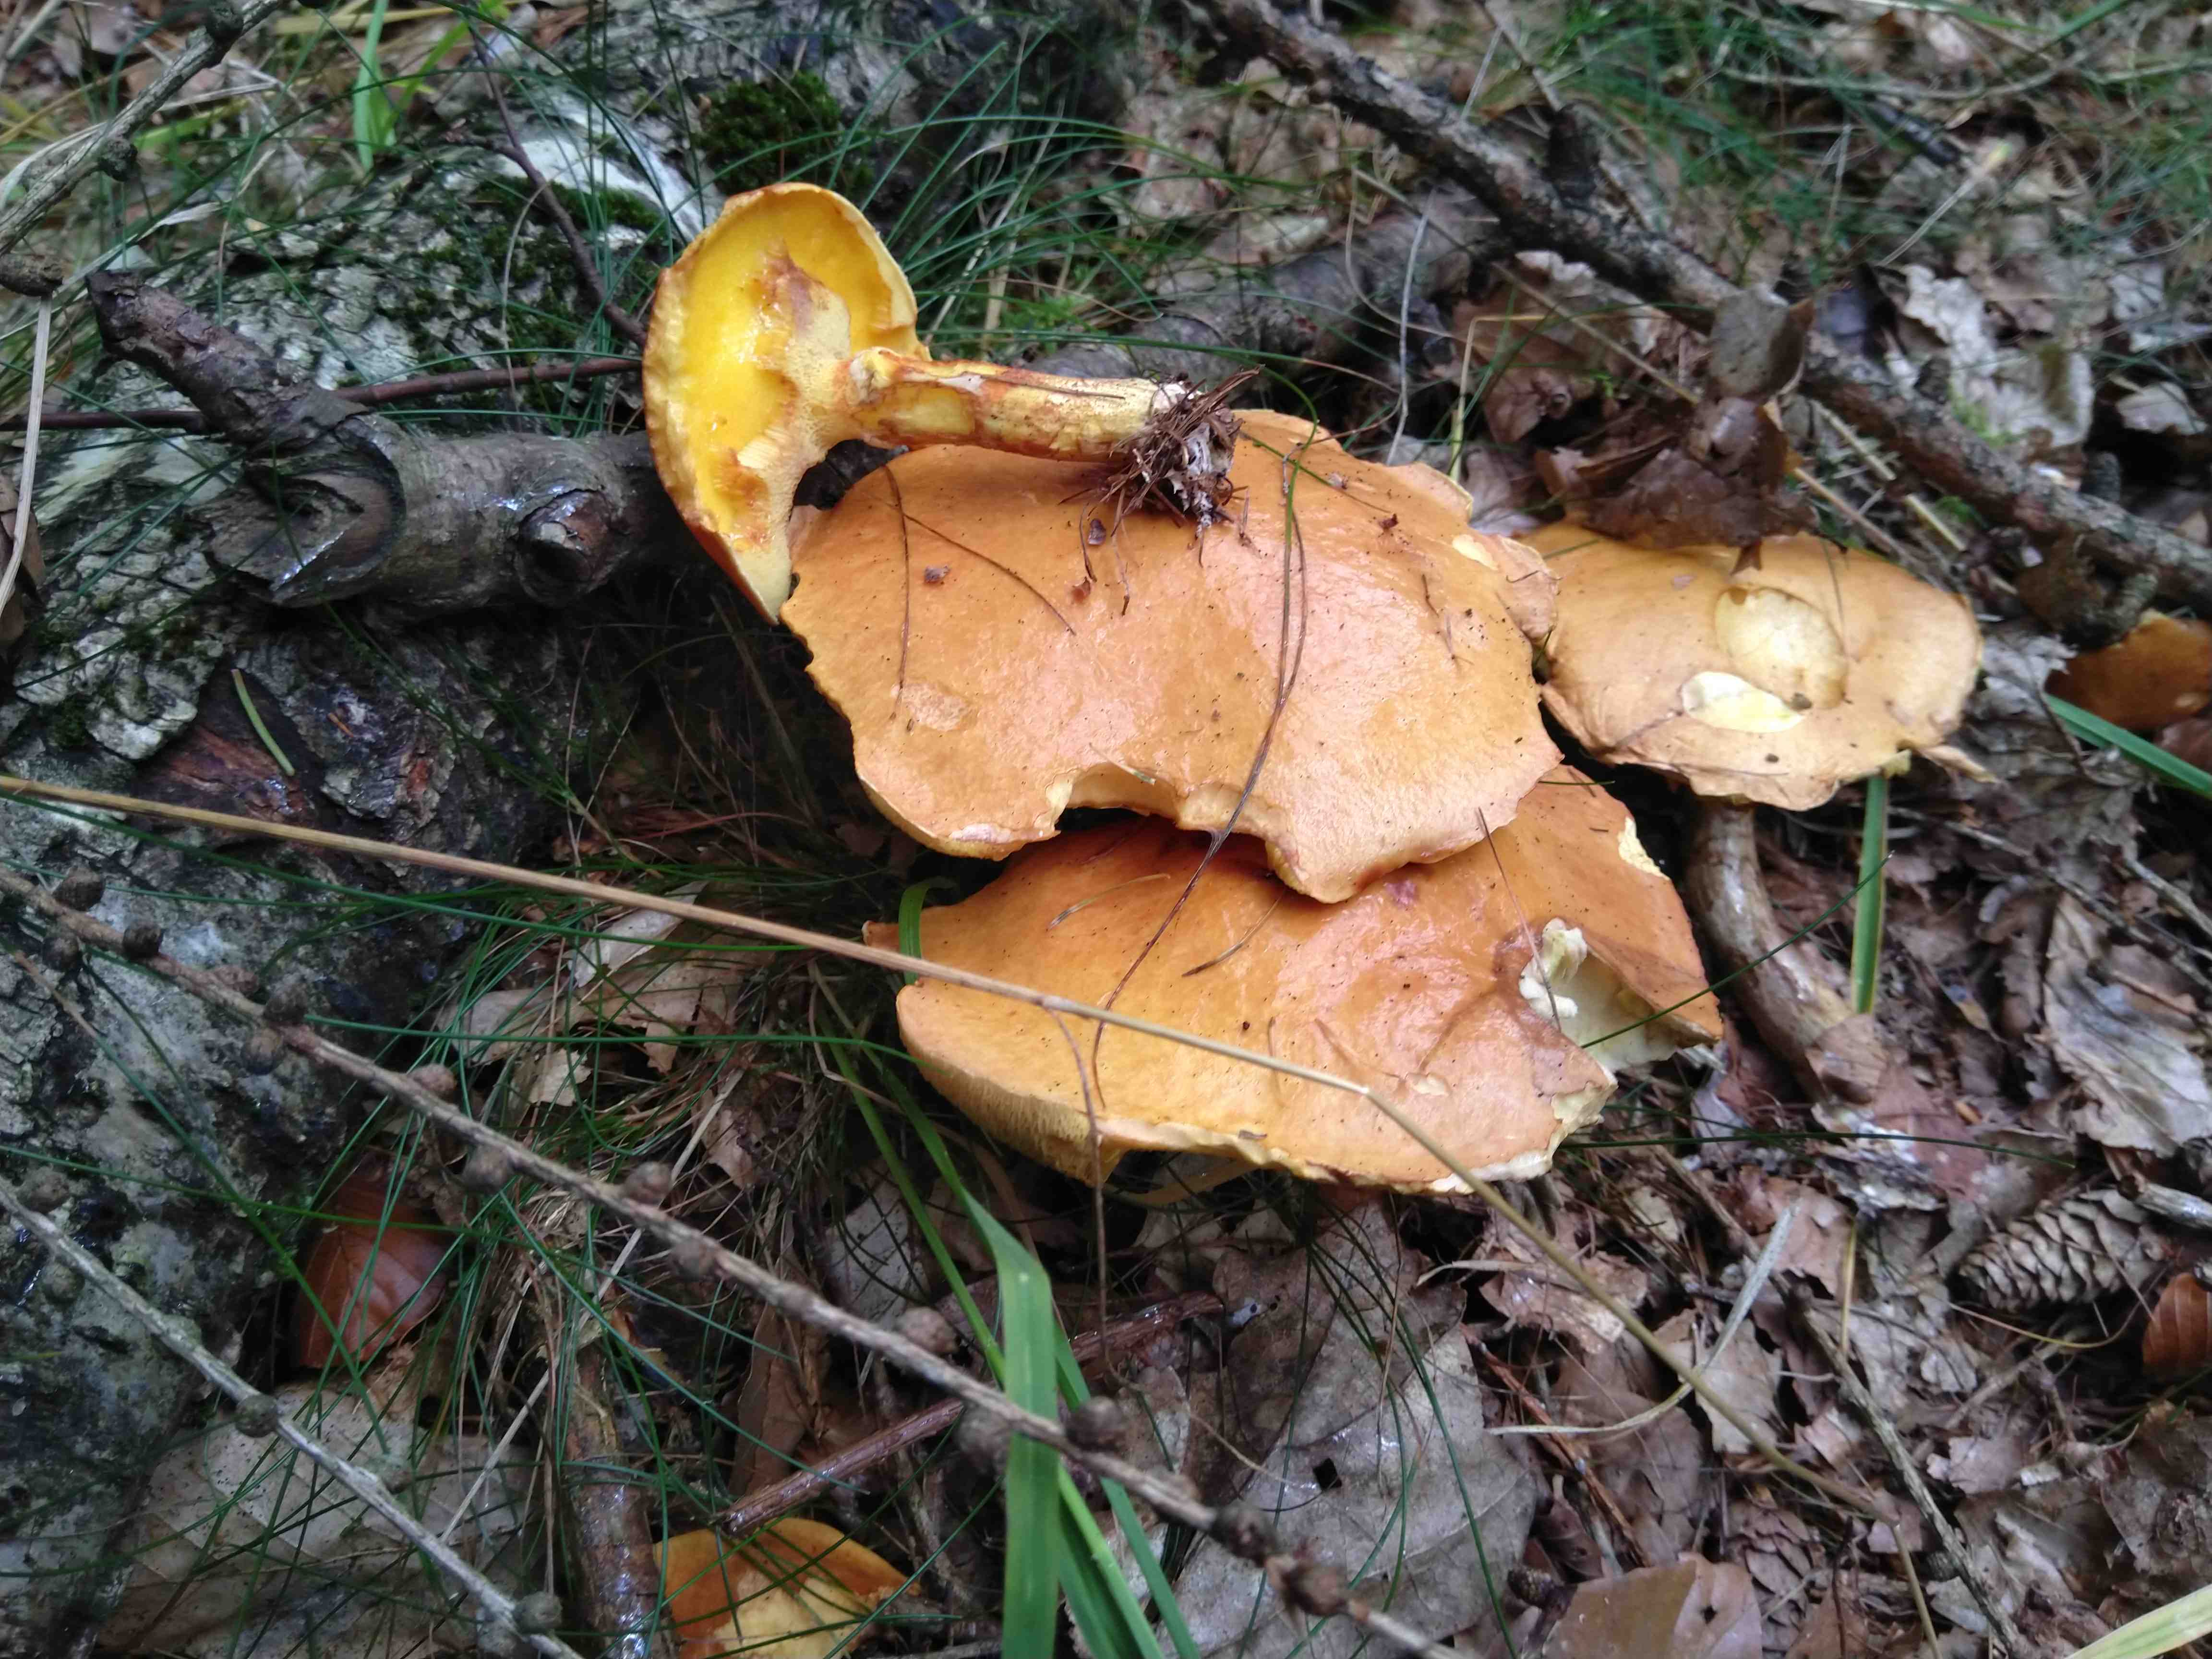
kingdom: Fungi
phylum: Basidiomycota
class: Agaricomycetes
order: Boletales
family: Suillaceae
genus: Suillus
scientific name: Suillus grevillei
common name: lærke-slimrørhat
